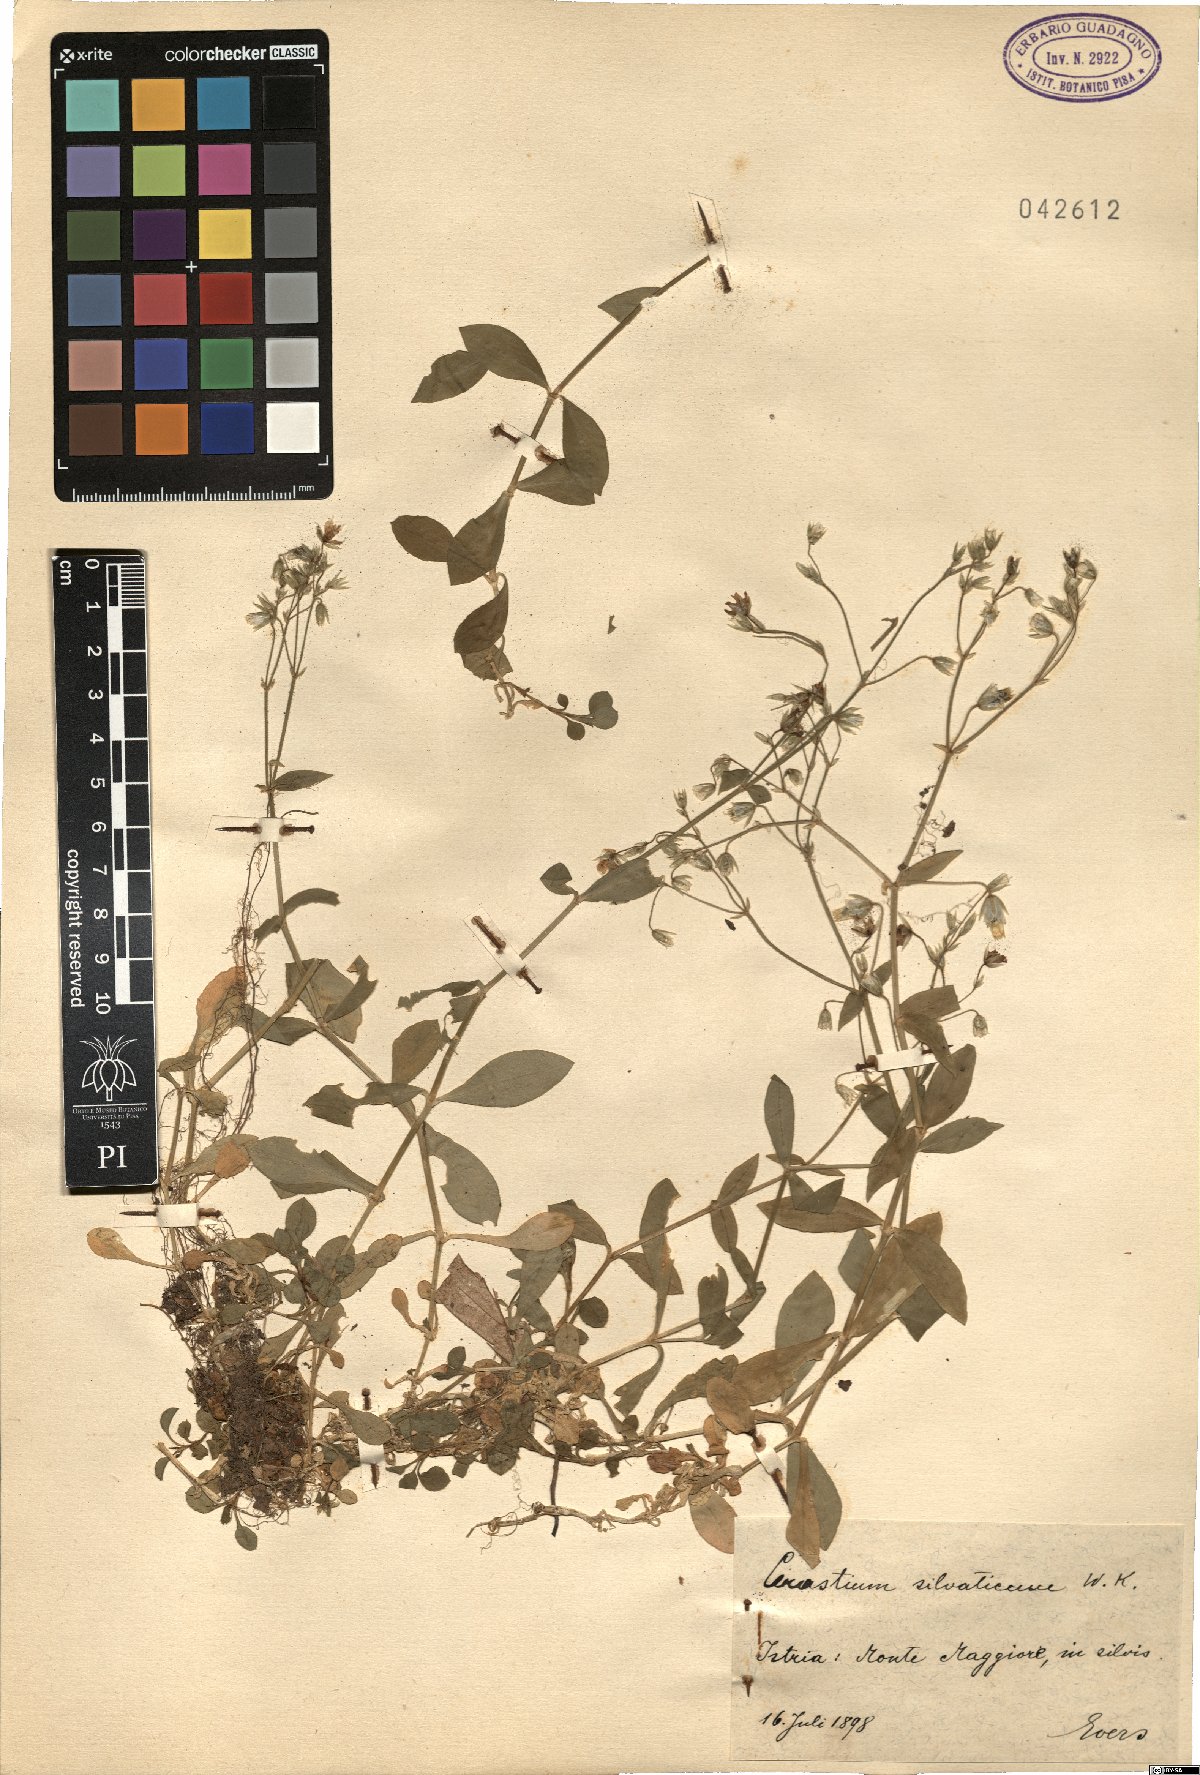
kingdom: Plantae
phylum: Tracheophyta
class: Magnoliopsida
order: Caryophyllales
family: Caryophyllaceae
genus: Cerastium
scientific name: Cerastium sylvaticum
